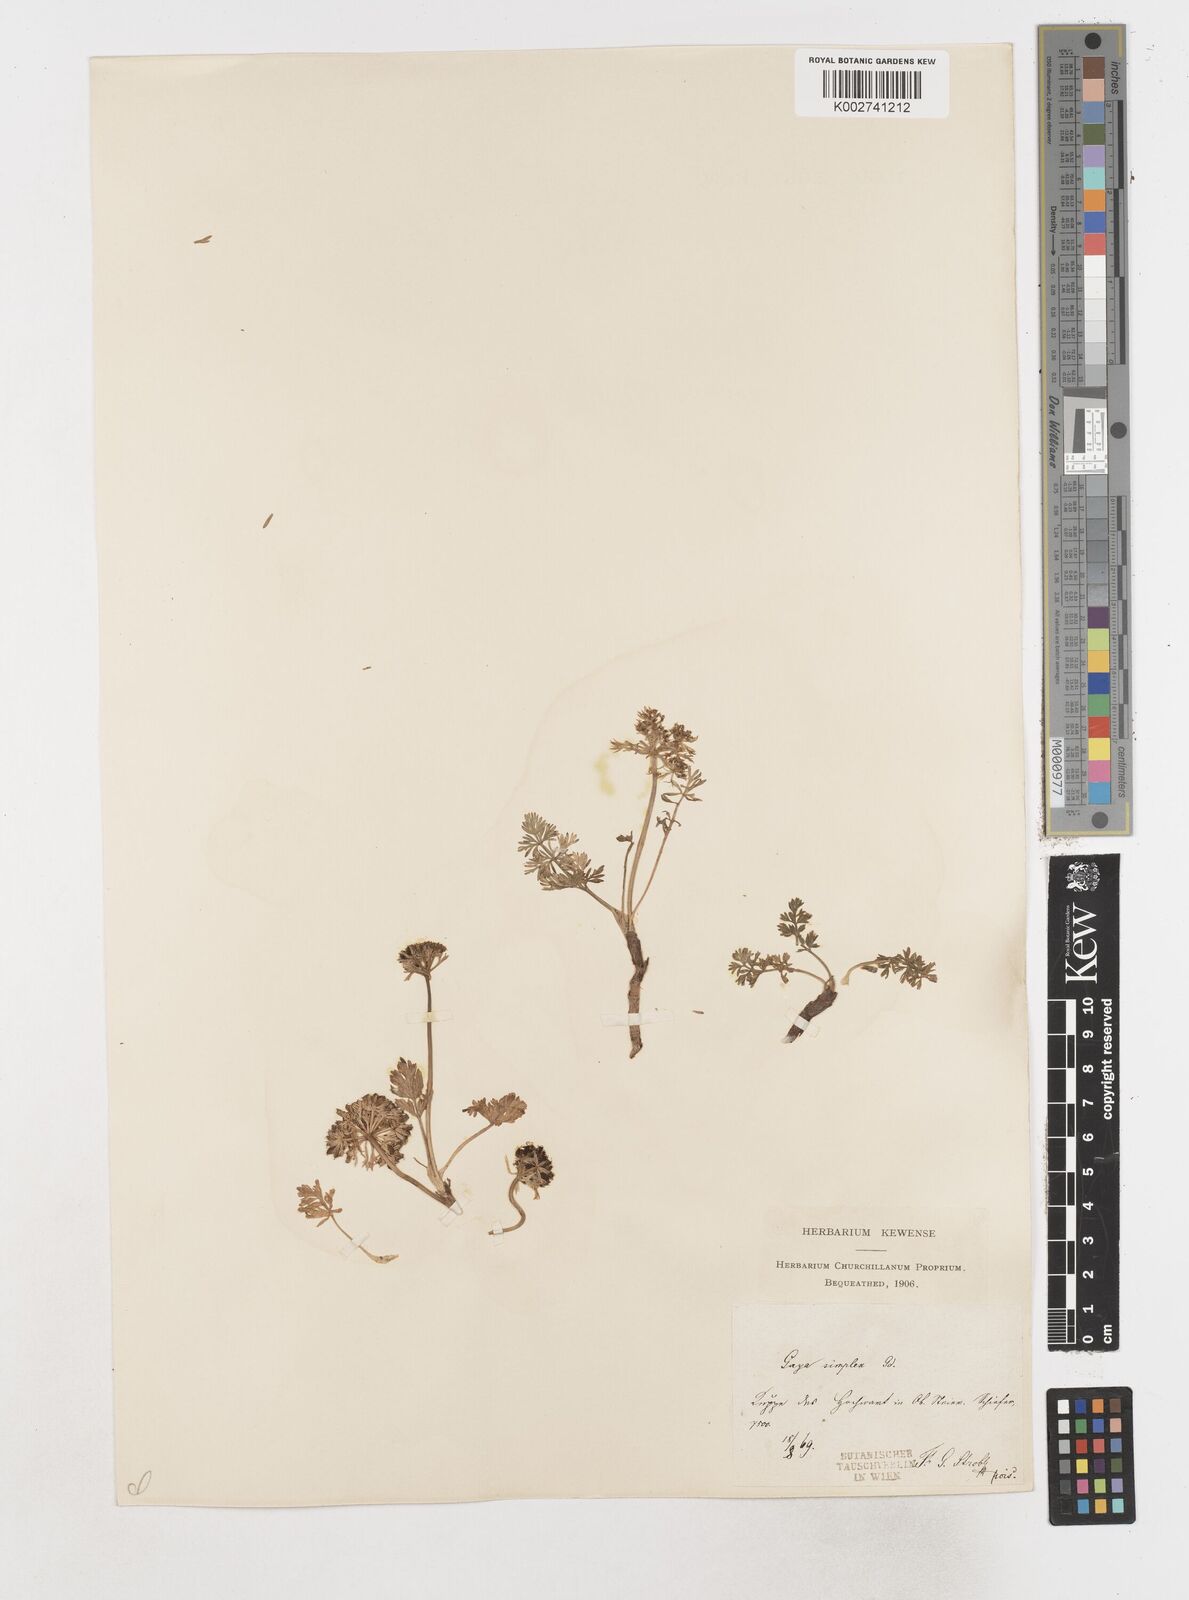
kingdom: Plantae
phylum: Tracheophyta
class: Magnoliopsida
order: Apiales
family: Apiaceae
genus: Pachypleurum
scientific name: Pachypleurum mutellinoides
